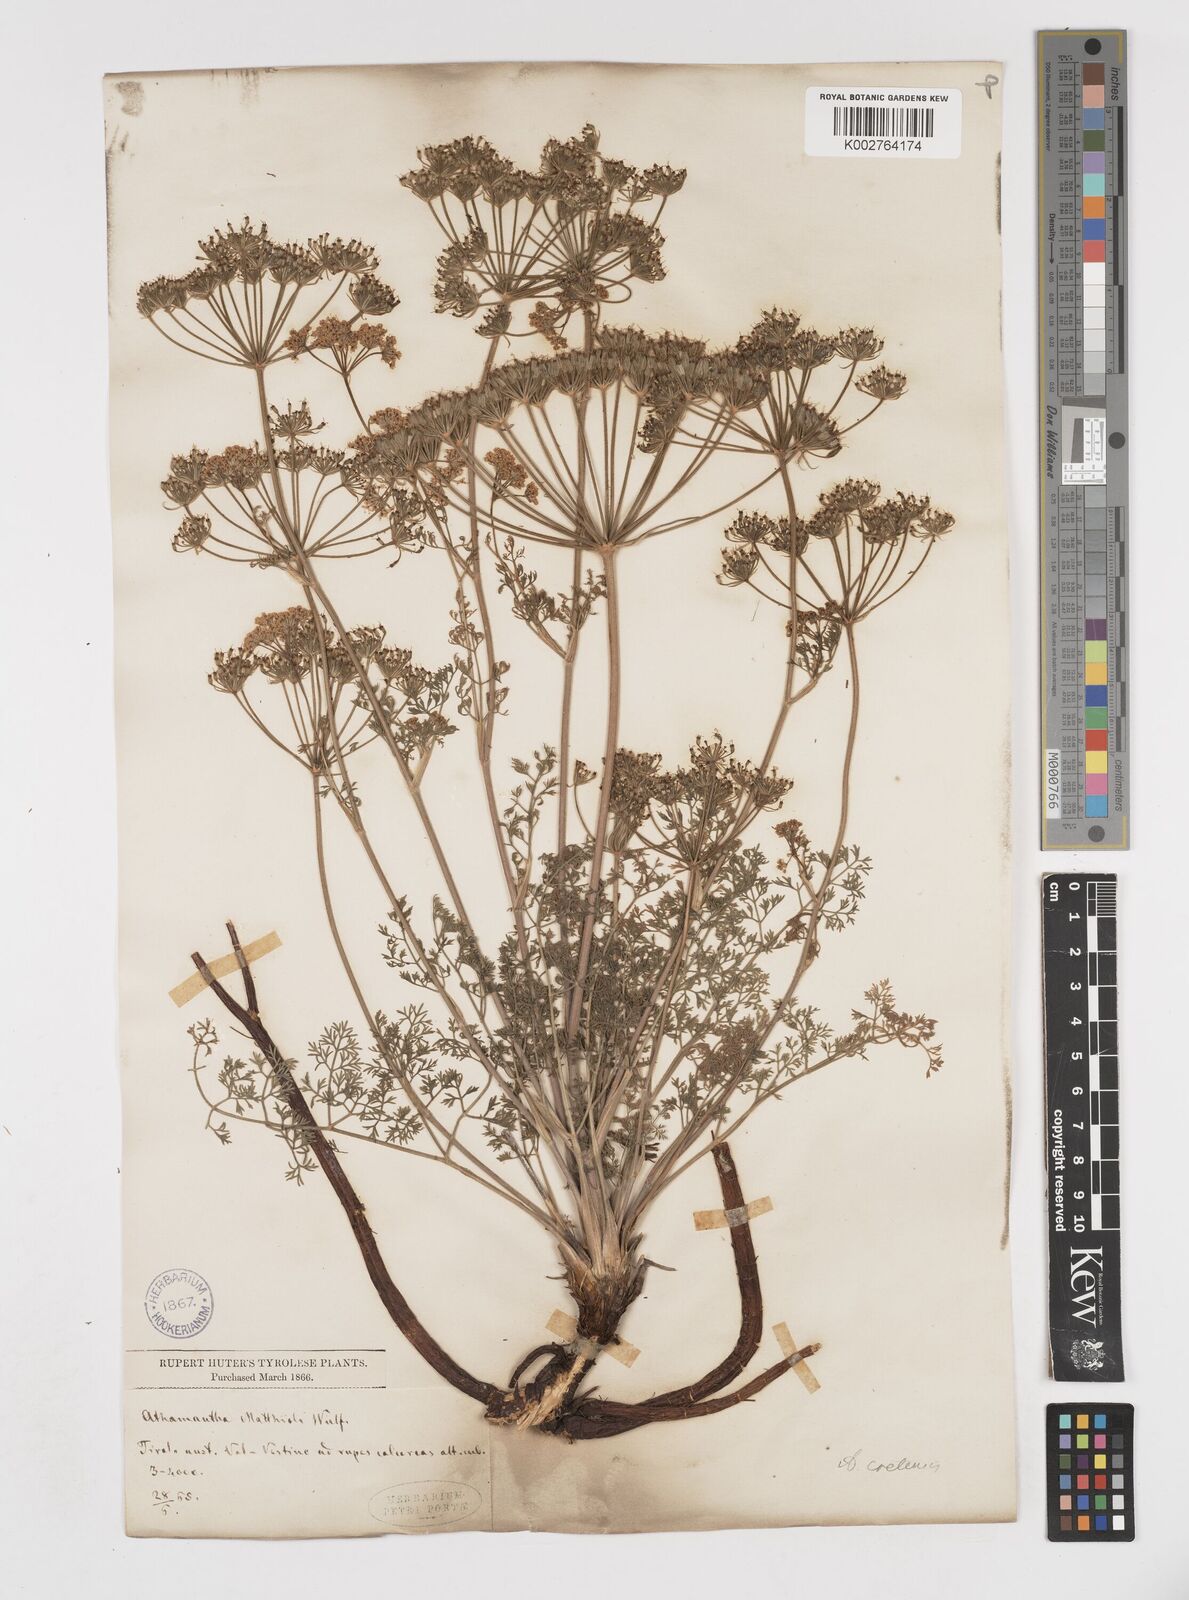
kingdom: Plantae
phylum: Tracheophyta
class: Magnoliopsida
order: Apiales
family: Apiaceae
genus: Athamanta
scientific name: Athamanta cretensis
